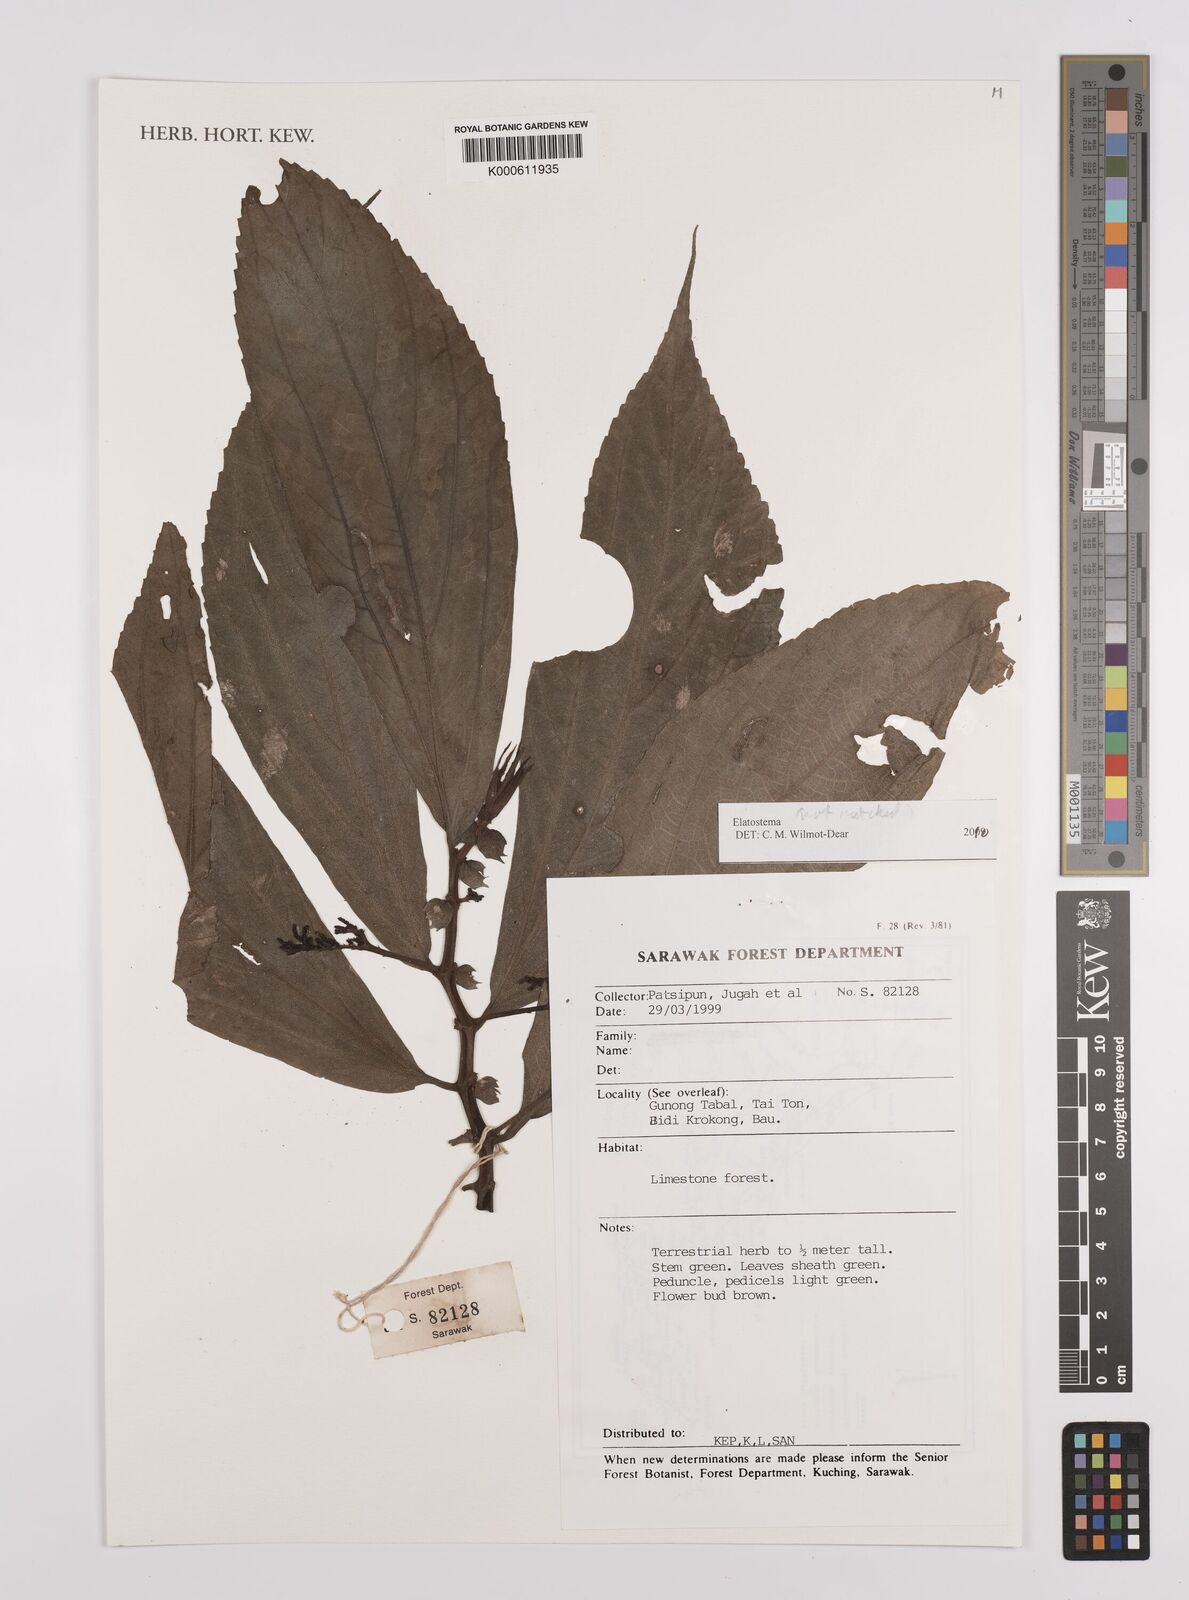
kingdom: Plantae
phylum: Tracheophyta
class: Magnoliopsida
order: Rosales
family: Urticaceae
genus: Elatostema
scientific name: Elatostema
